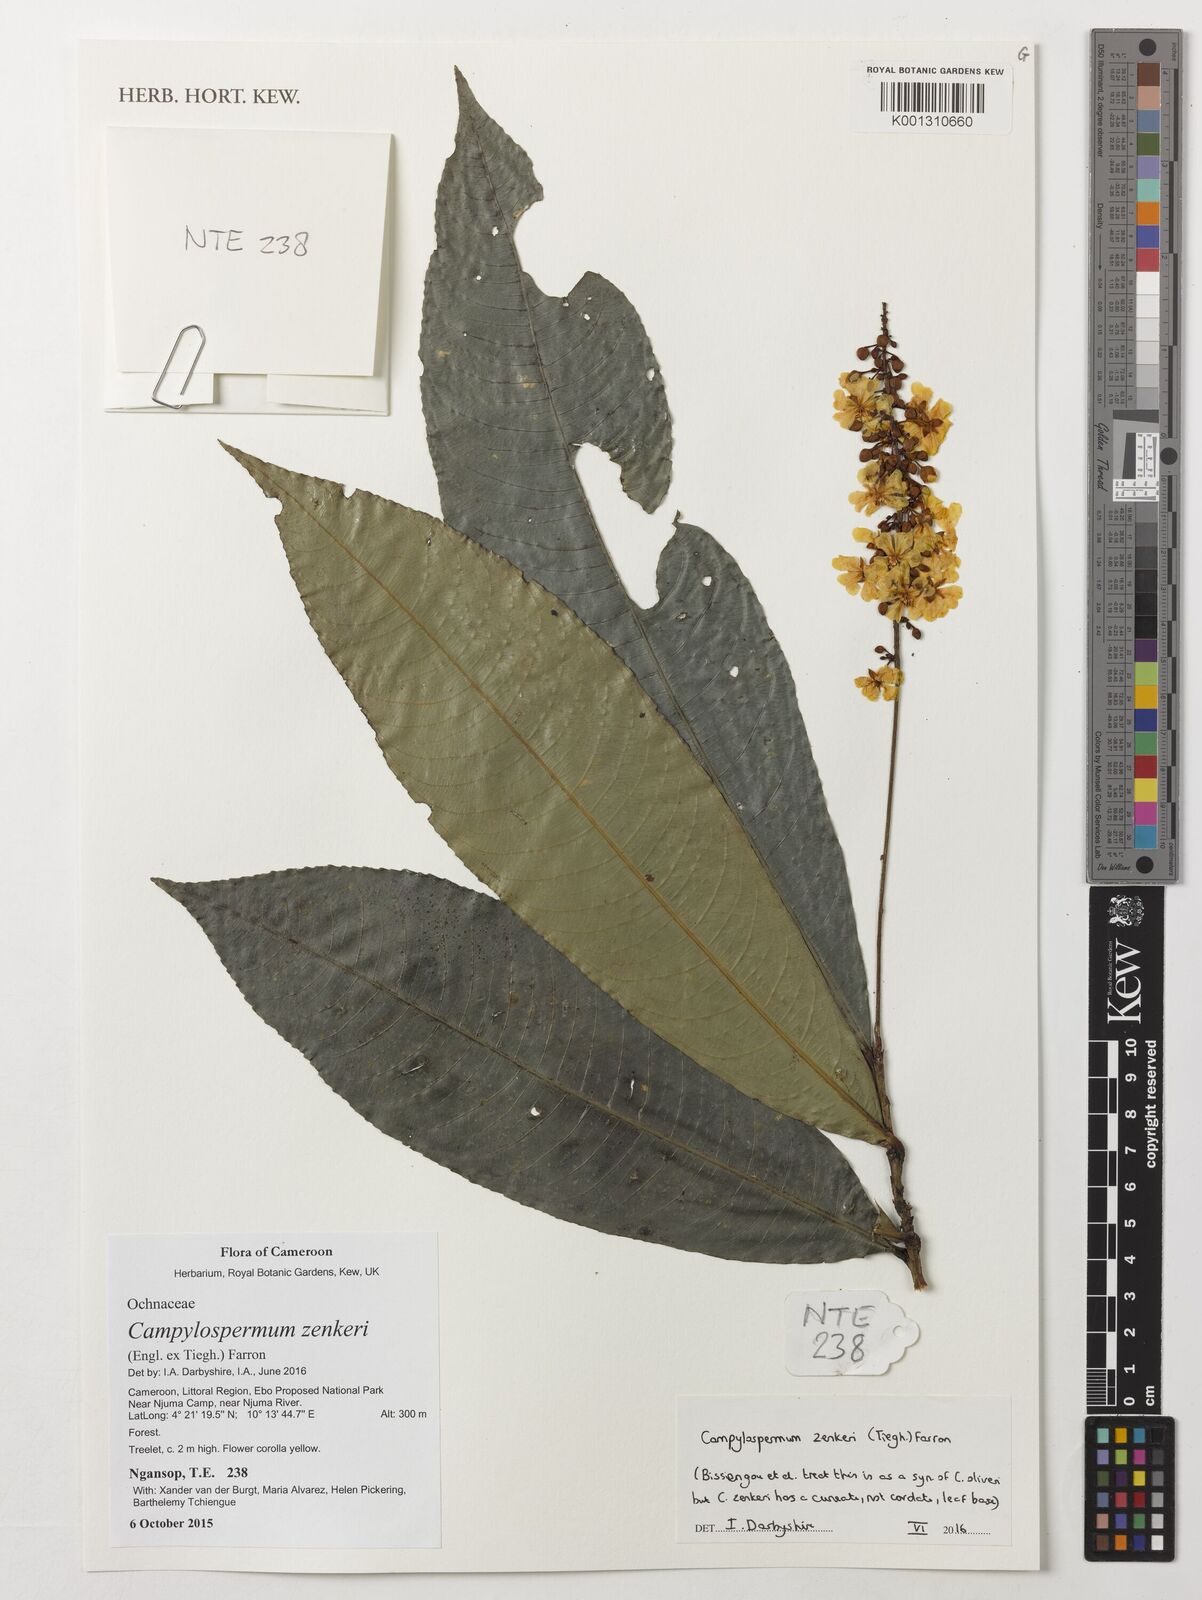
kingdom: Plantae
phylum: Tracheophyta
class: Magnoliopsida
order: Malpighiales
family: Ochnaceae
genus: Campylospermum
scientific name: Campylospermum zenkeri
